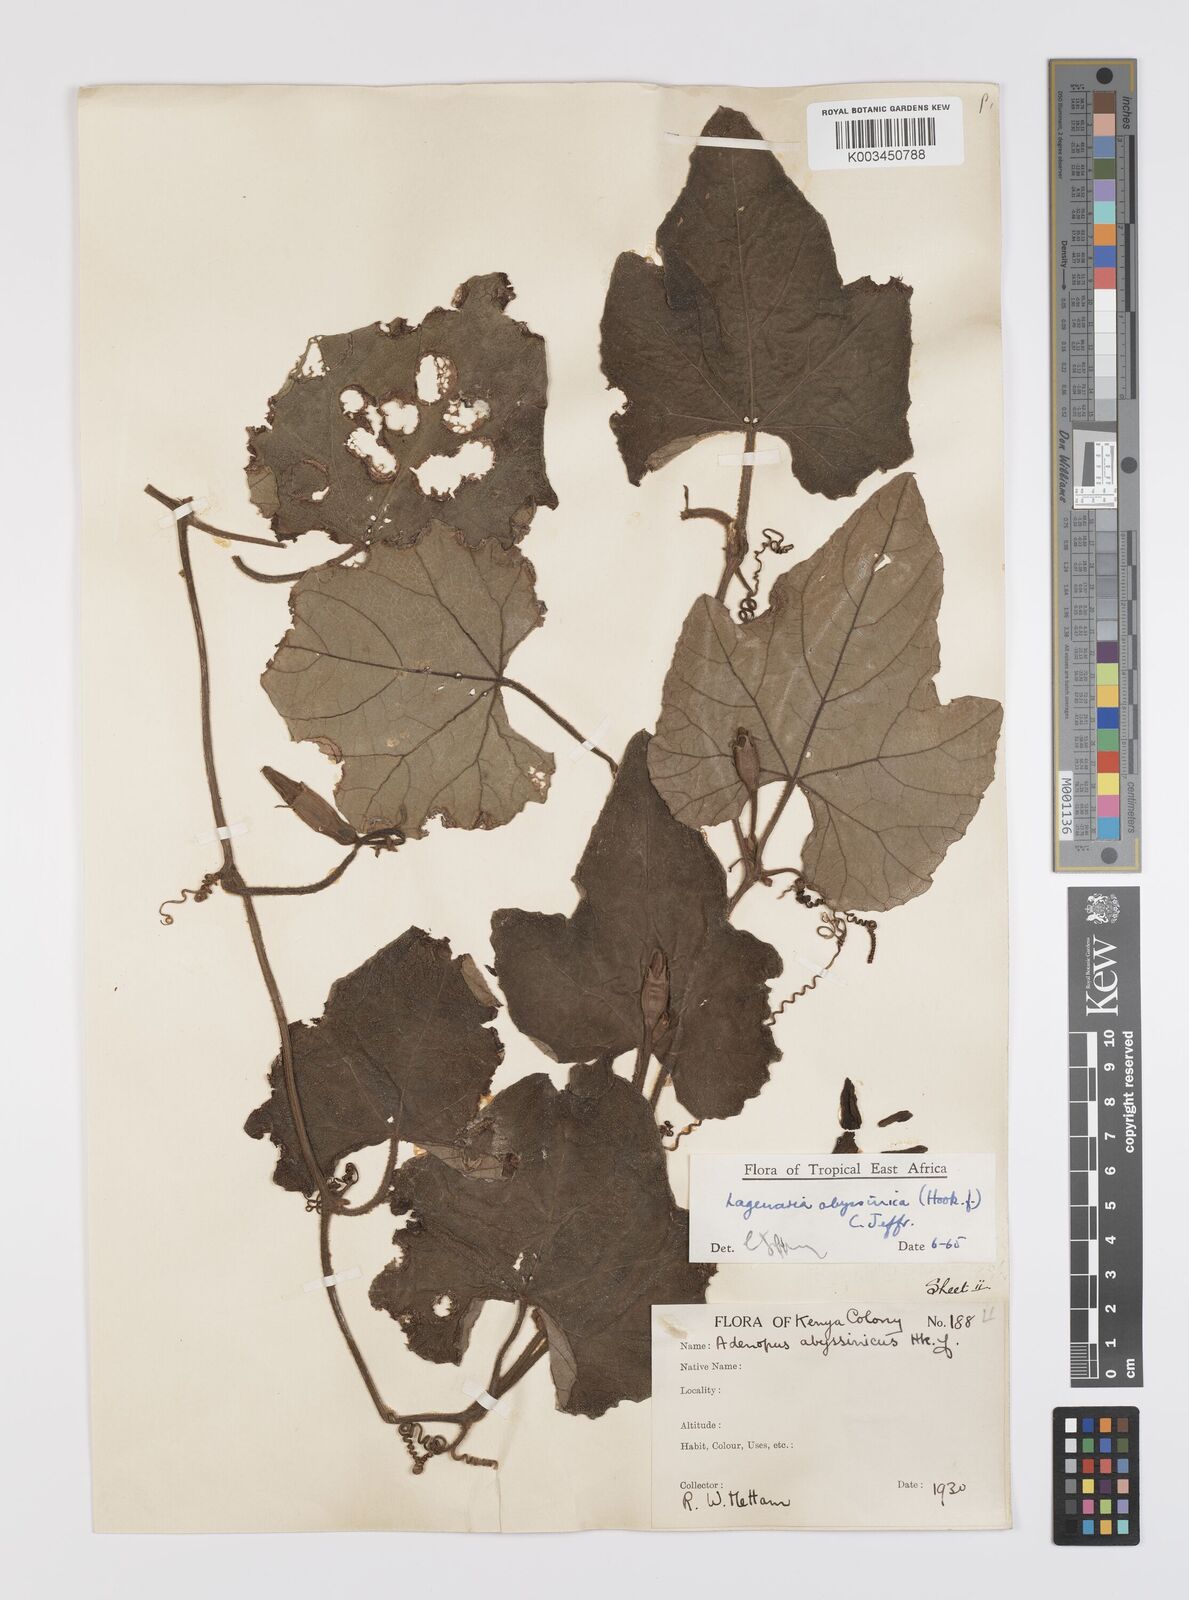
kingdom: Plantae
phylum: Tracheophyta
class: Magnoliopsida
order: Cucurbitales
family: Cucurbitaceae
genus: Lagenaria
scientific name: Lagenaria abyssinica
